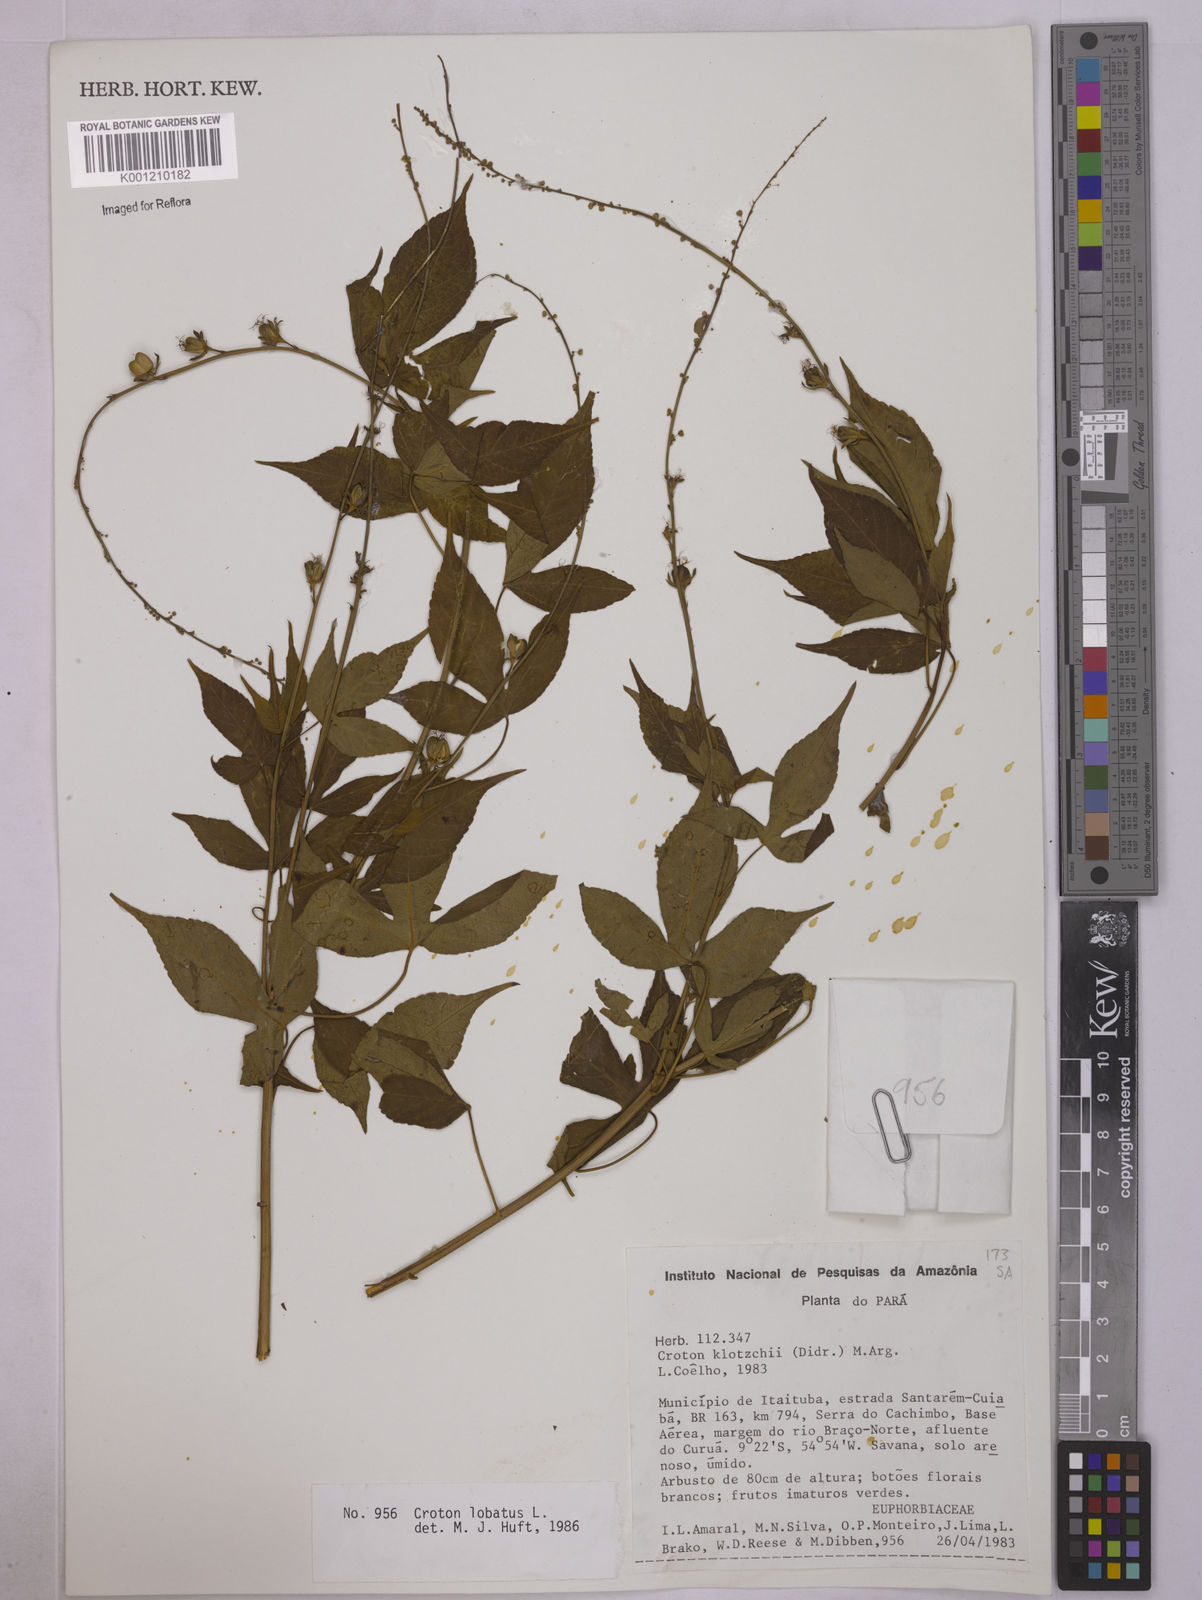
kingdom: Plantae
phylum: Tracheophyta
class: Magnoliopsida
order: Malpighiales
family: Euphorbiaceae
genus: Astraea
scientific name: Astraea lobata
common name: Lobed croton
